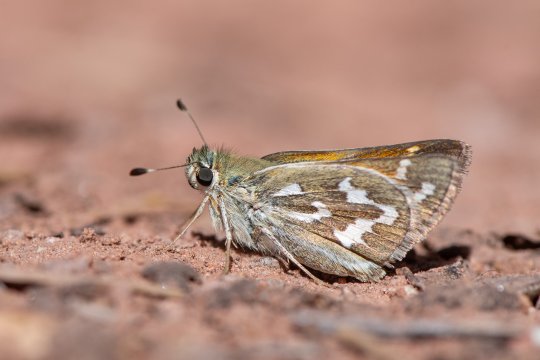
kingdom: Animalia
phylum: Arthropoda
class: Insecta
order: Lepidoptera
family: Hesperiidae
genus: Hesperia
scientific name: Hesperia comma
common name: Western Branded Skipper
